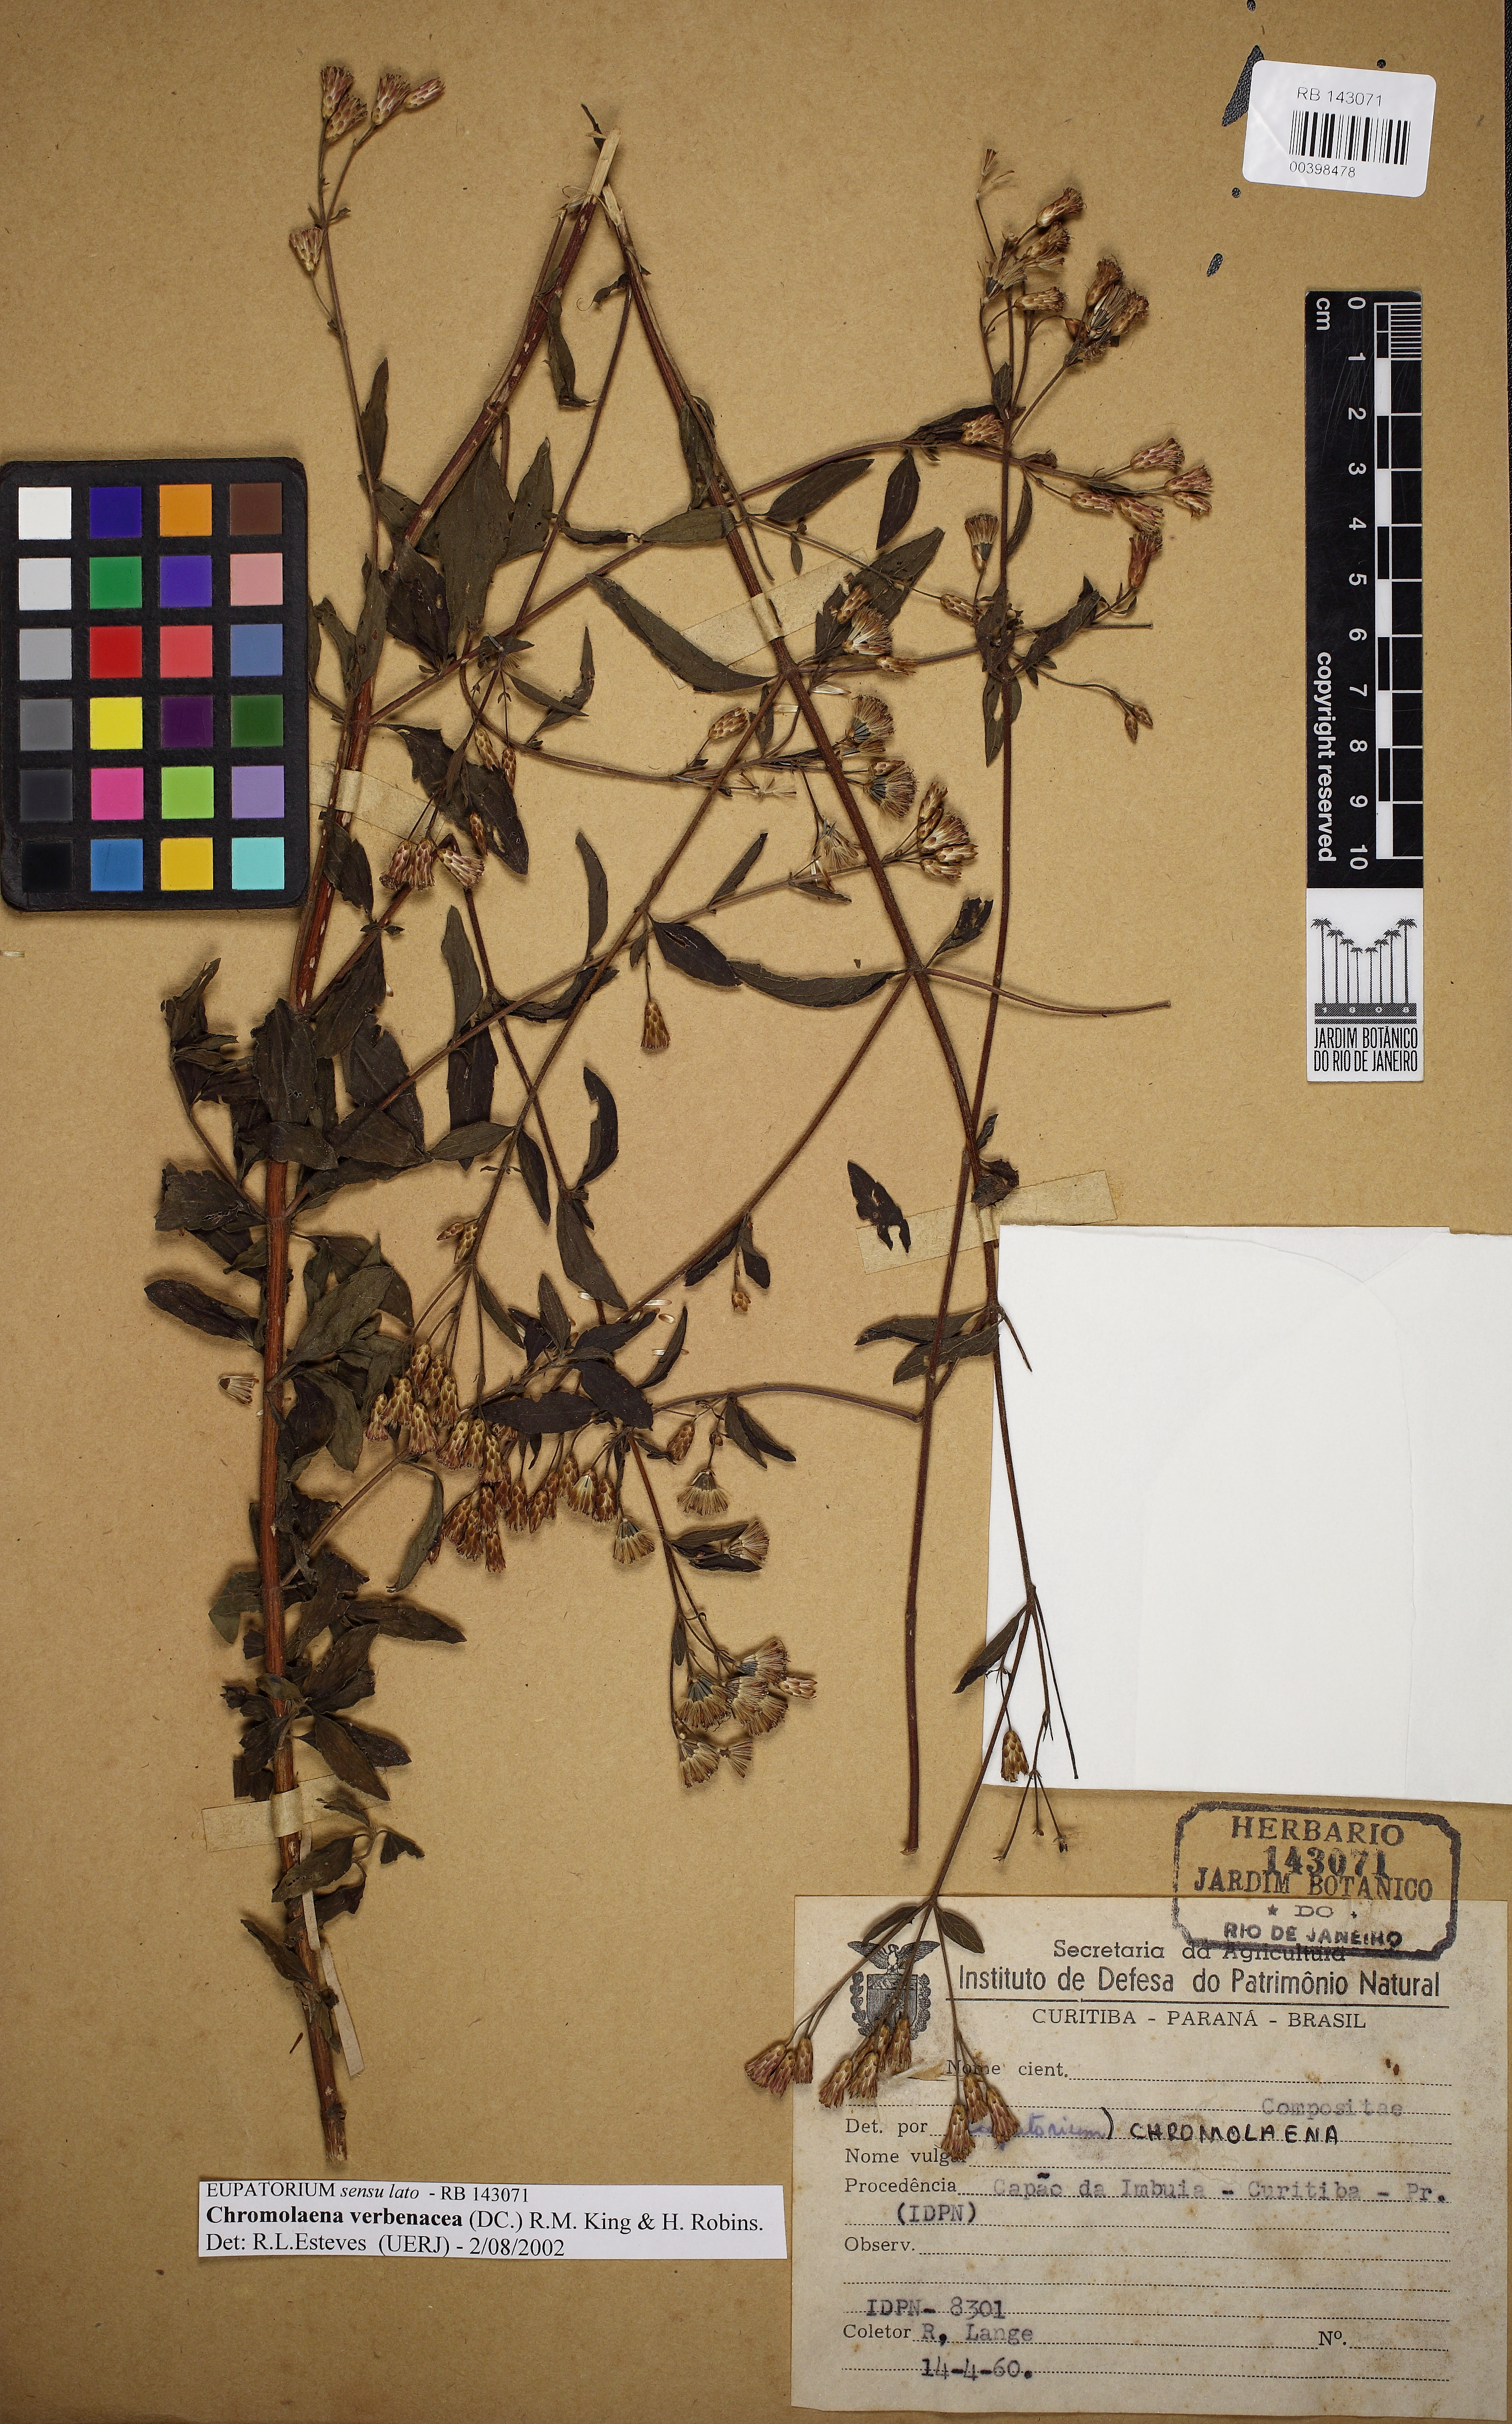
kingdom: Plantae
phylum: Tracheophyta
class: Magnoliopsida
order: Asterales
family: Asteraceae
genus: Chromolaena
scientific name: Chromolaena verbenacea
